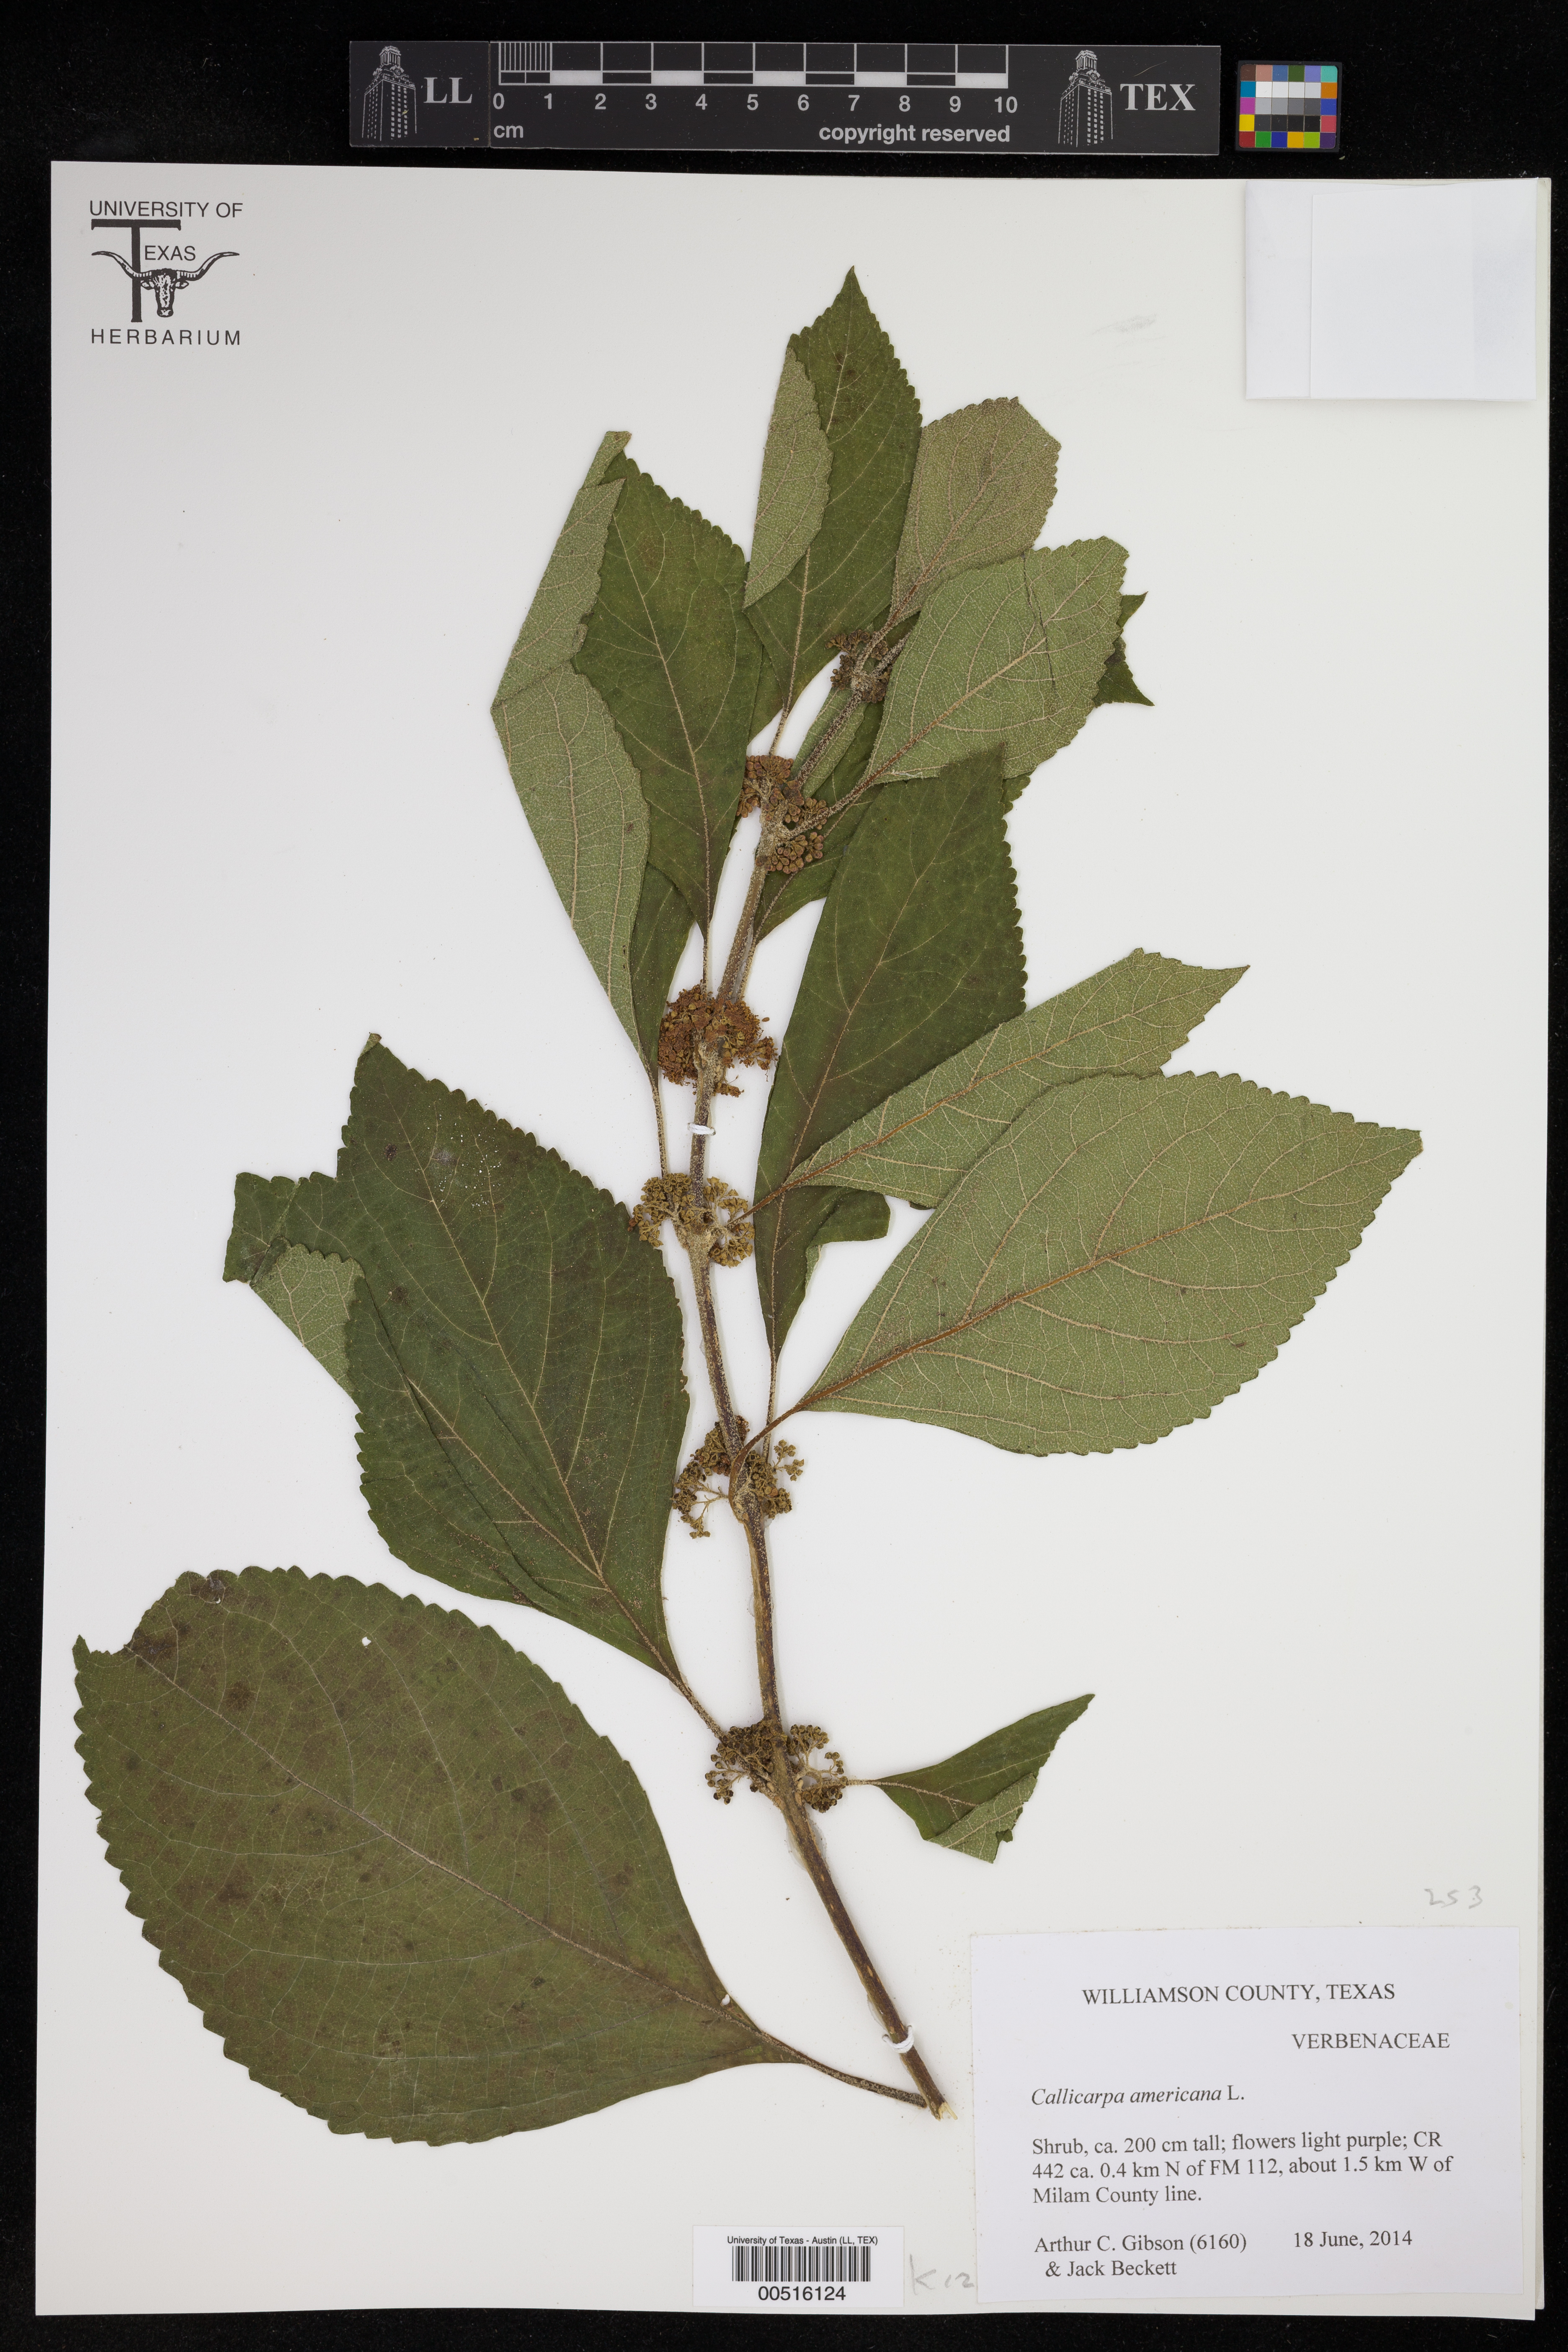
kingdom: Plantae
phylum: Tracheophyta
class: Magnoliopsida
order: Lamiales
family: Lamiaceae
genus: Callicarpa
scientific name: Callicarpa americana
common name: American beautyberry
